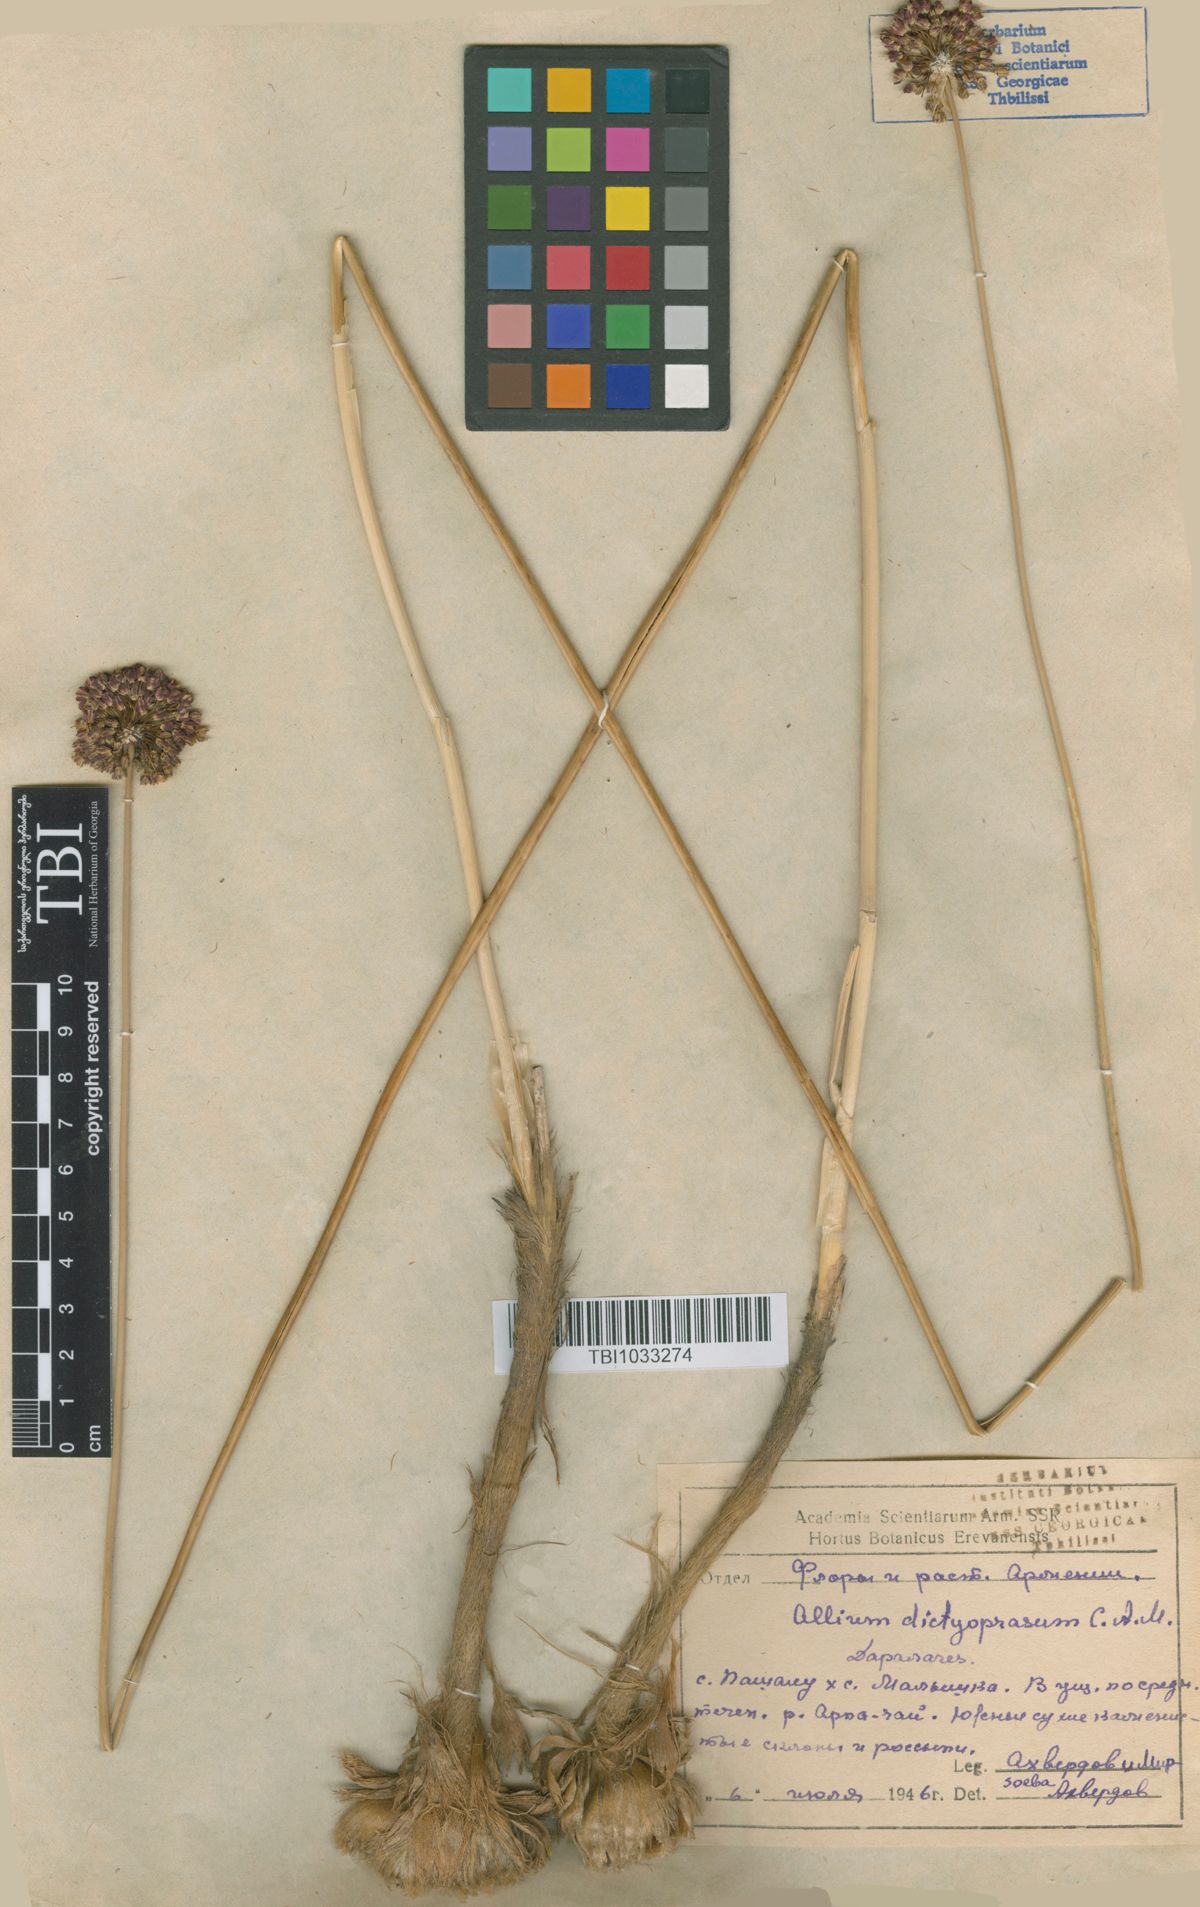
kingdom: Plantae
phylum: Tracheophyta
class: Liliopsida
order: Asparagales
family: Amaryllidaceae
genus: Allium
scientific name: Allium dictyoprasum
